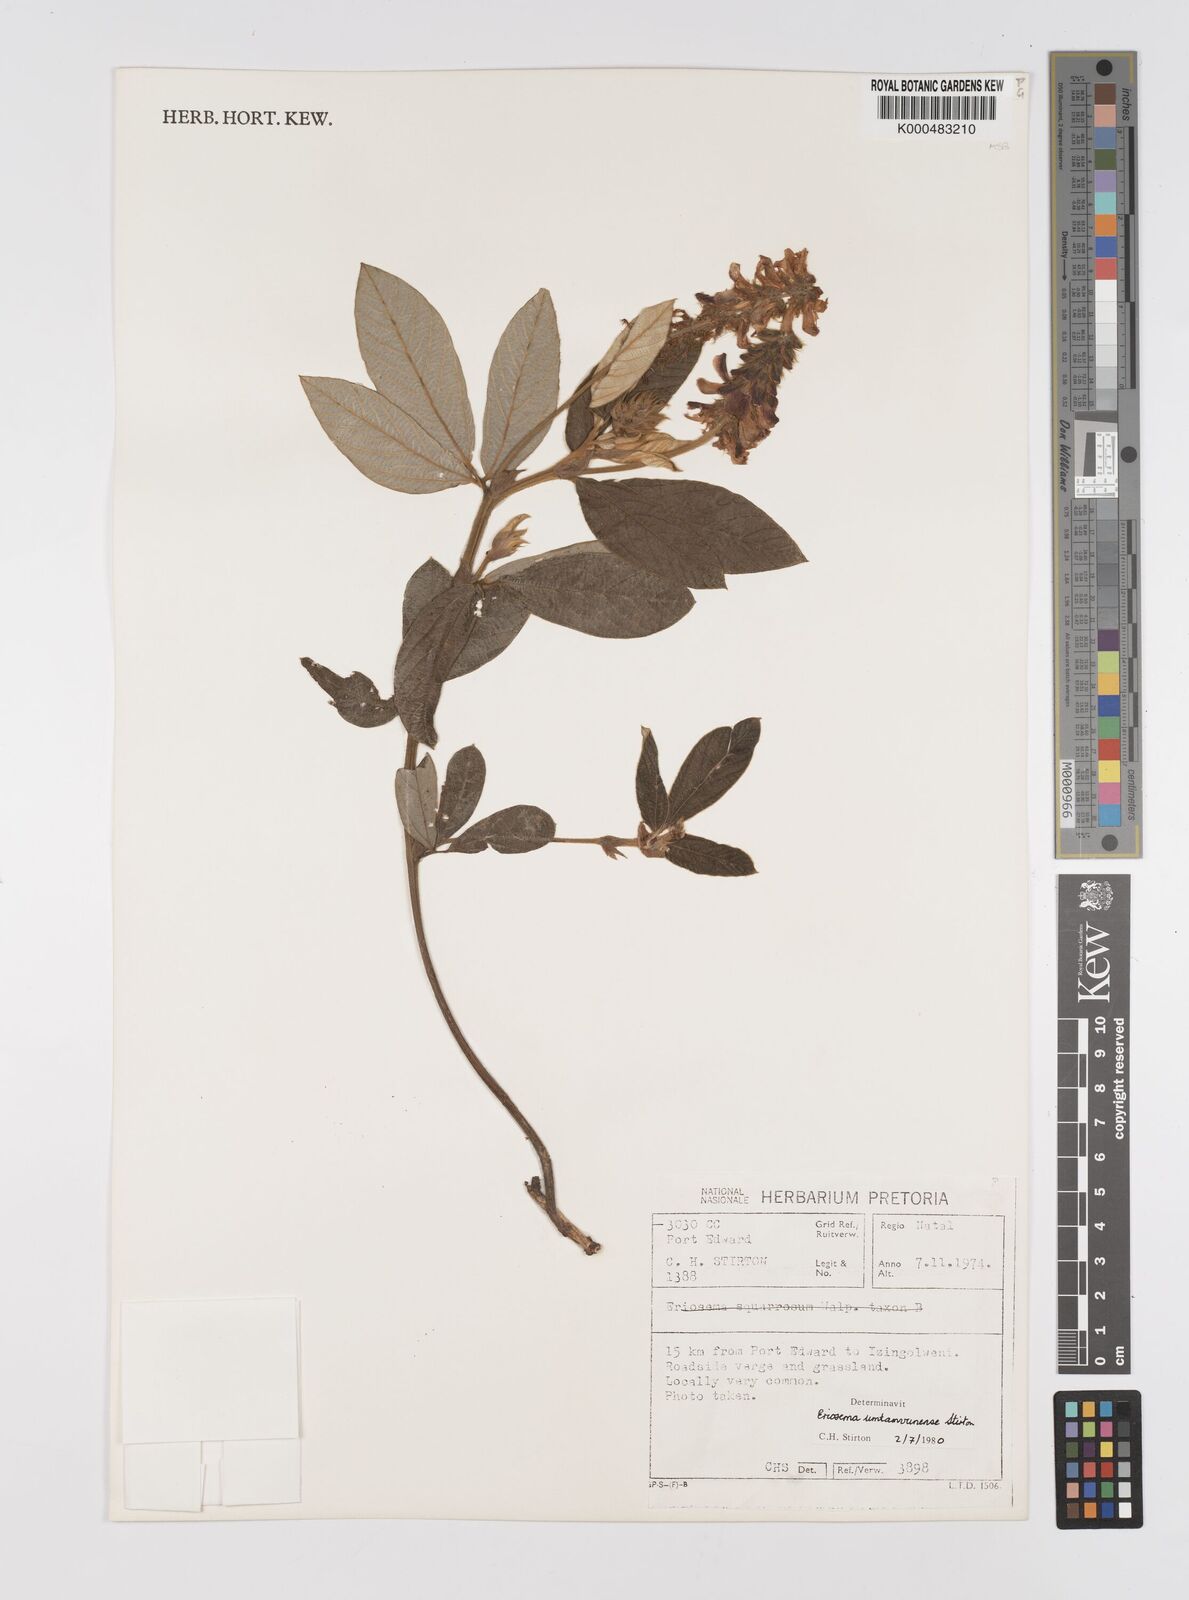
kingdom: Plantae
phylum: Tracheophyta
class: Magnoliopsida
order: Fabales
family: Fabaceae
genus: Eriosema
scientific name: Eriosema umtamvunense
